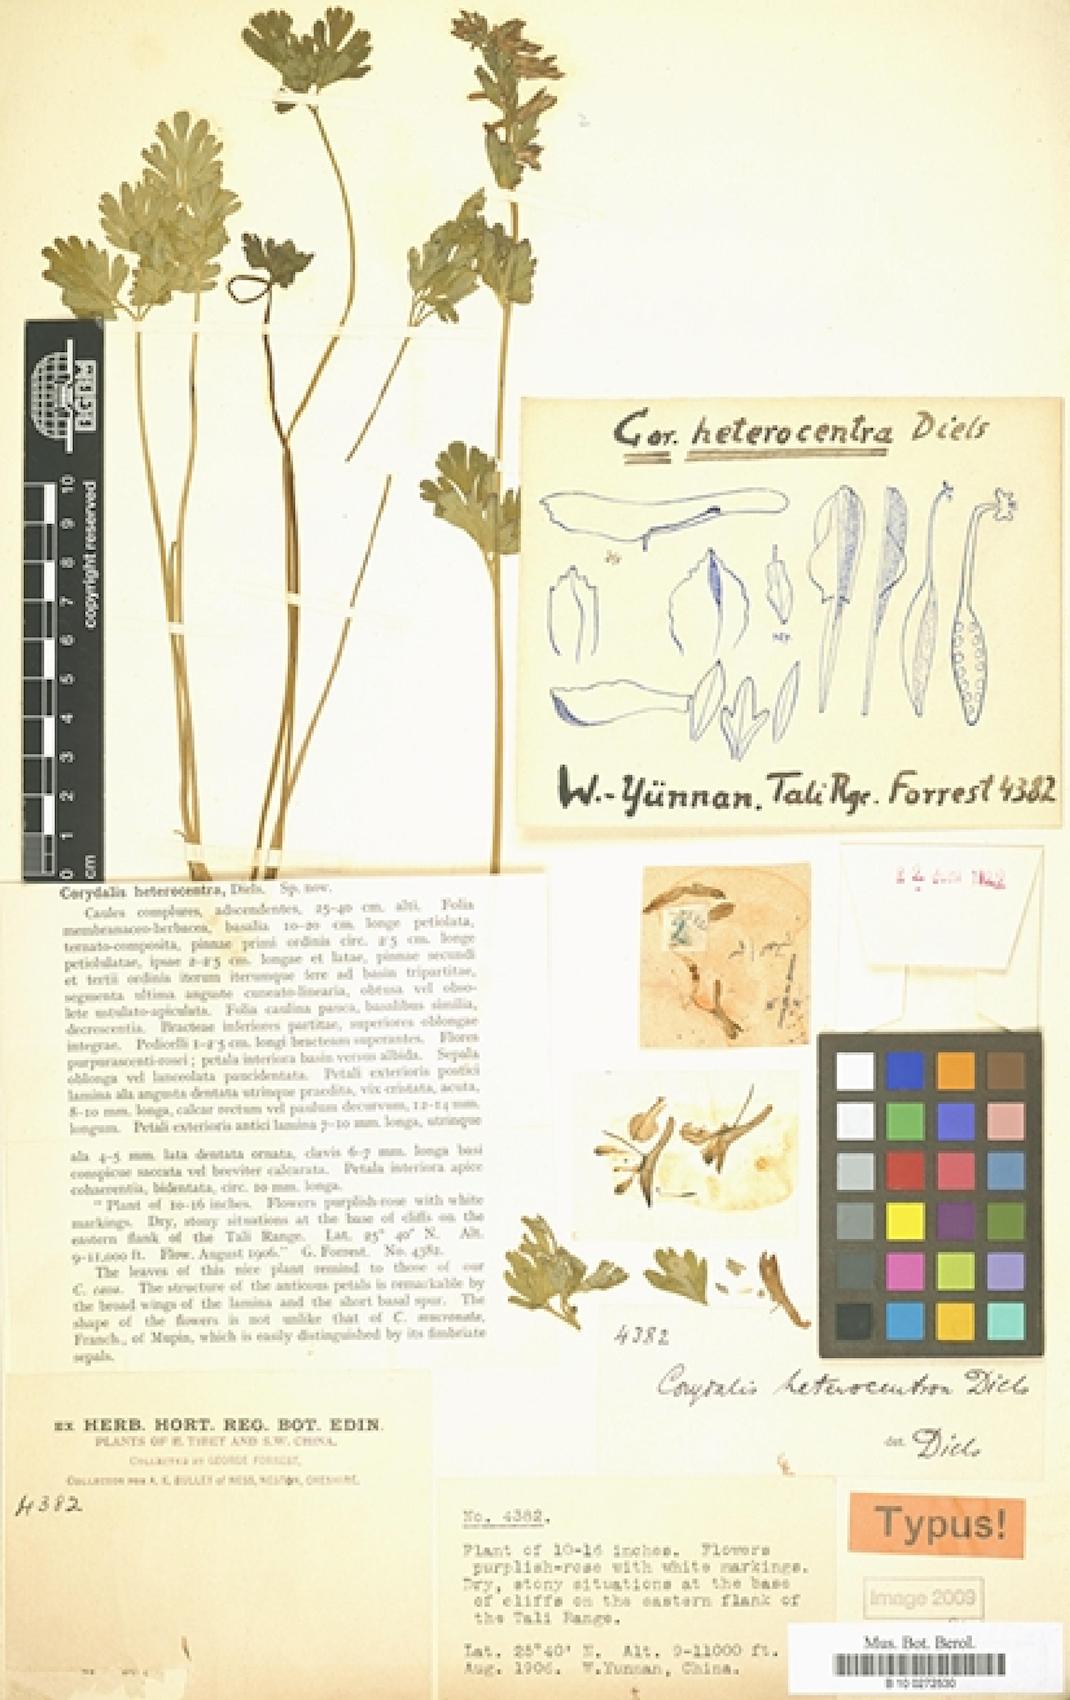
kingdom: Plantae
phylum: Tracheophyta
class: Magnoliopsida
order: Ranunculales
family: Papaveraceae
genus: Corydalis
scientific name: Corydalis heterocentra
